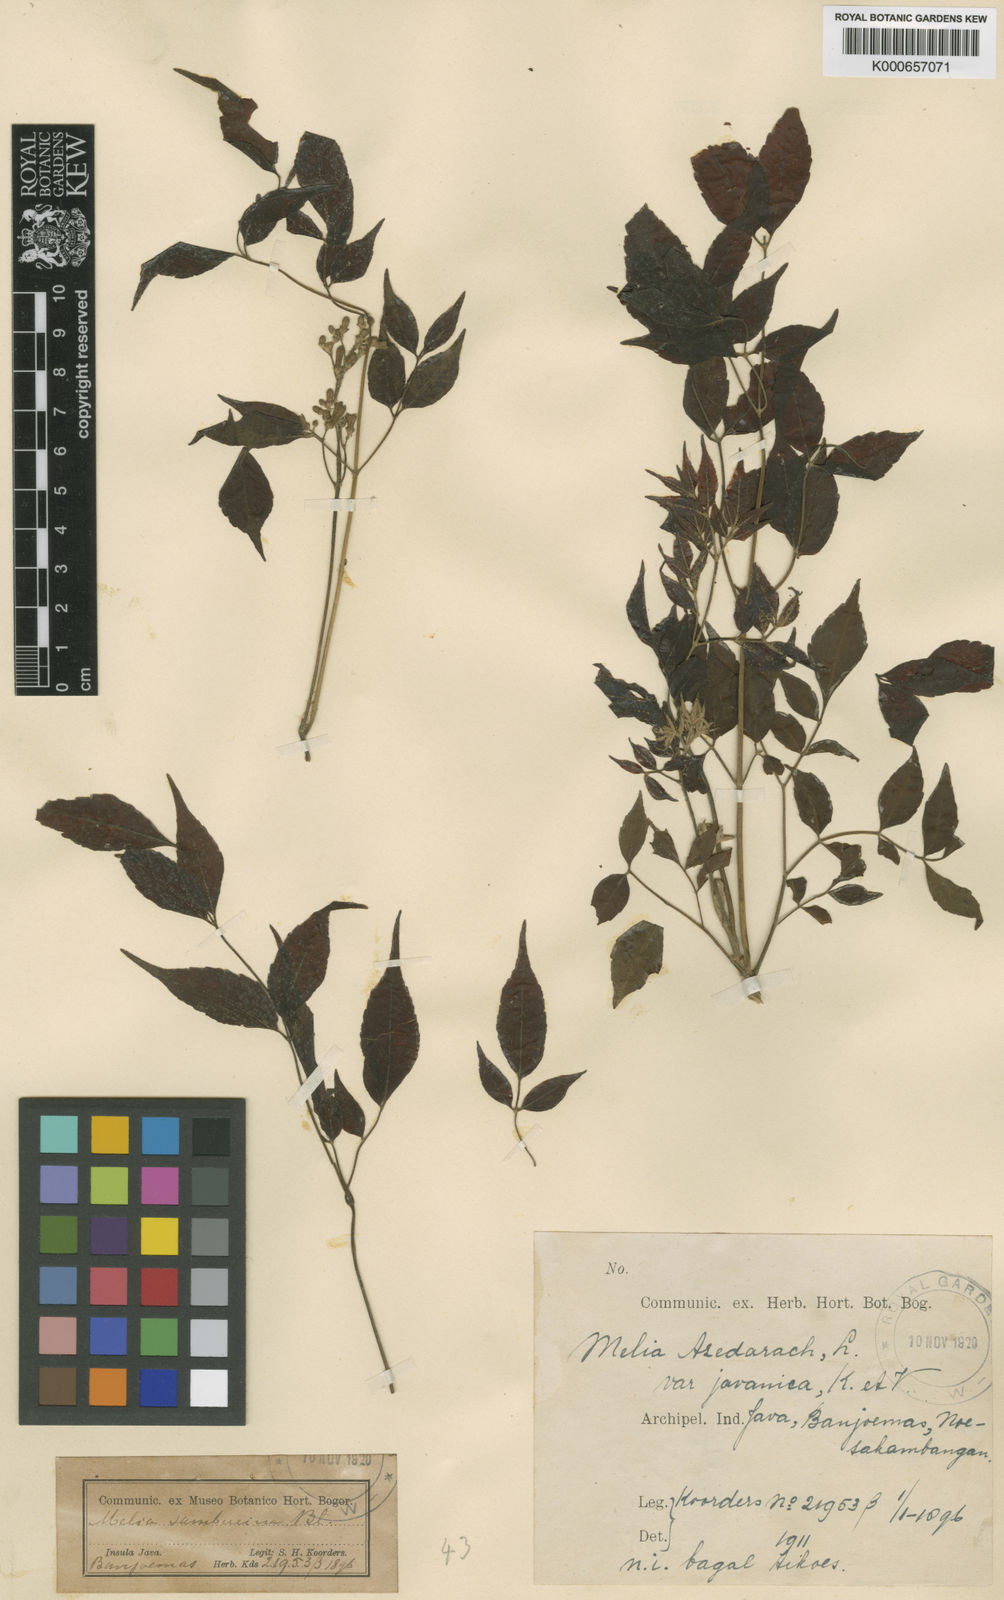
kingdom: Plantae
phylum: Tracheophyta
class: Magnoliopsida
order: Sapindales
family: Meliaceae
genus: Melia
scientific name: Melia azedarach
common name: Chinaberrytree
